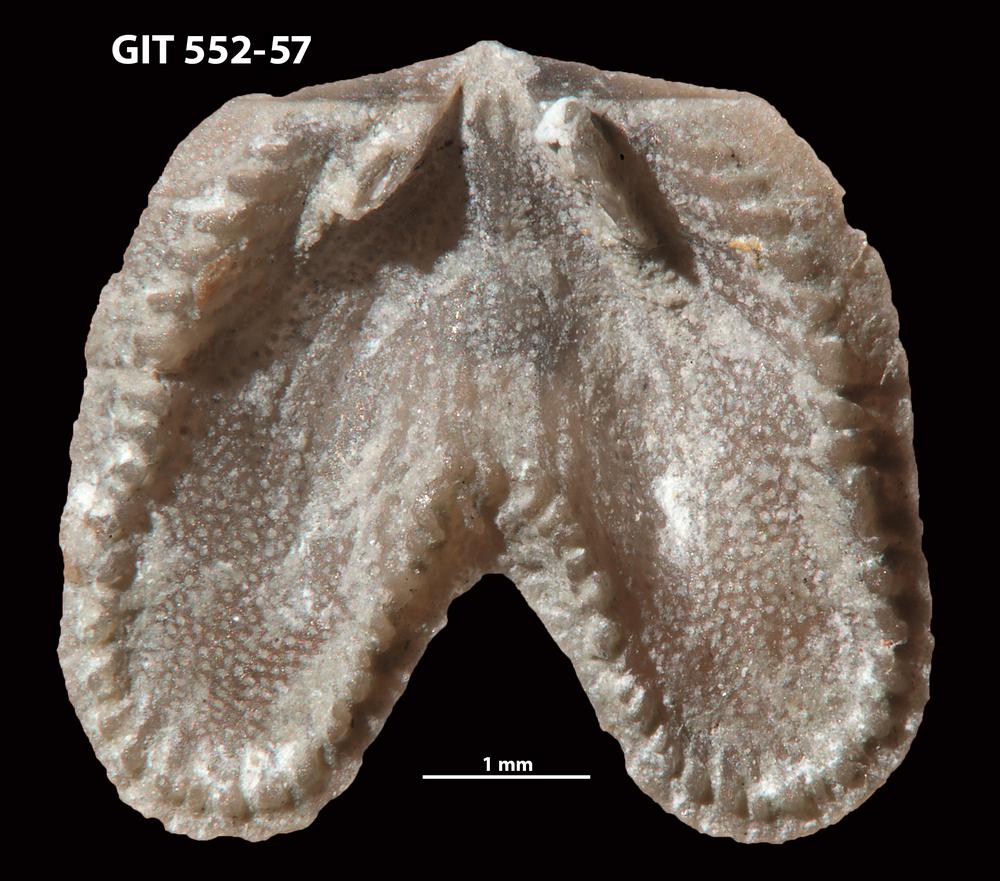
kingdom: Animalia
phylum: Brachiopoda
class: Rhynchonellata
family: Dicoelosiidae
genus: Dicoelosia
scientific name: Dicoelosia paralata
